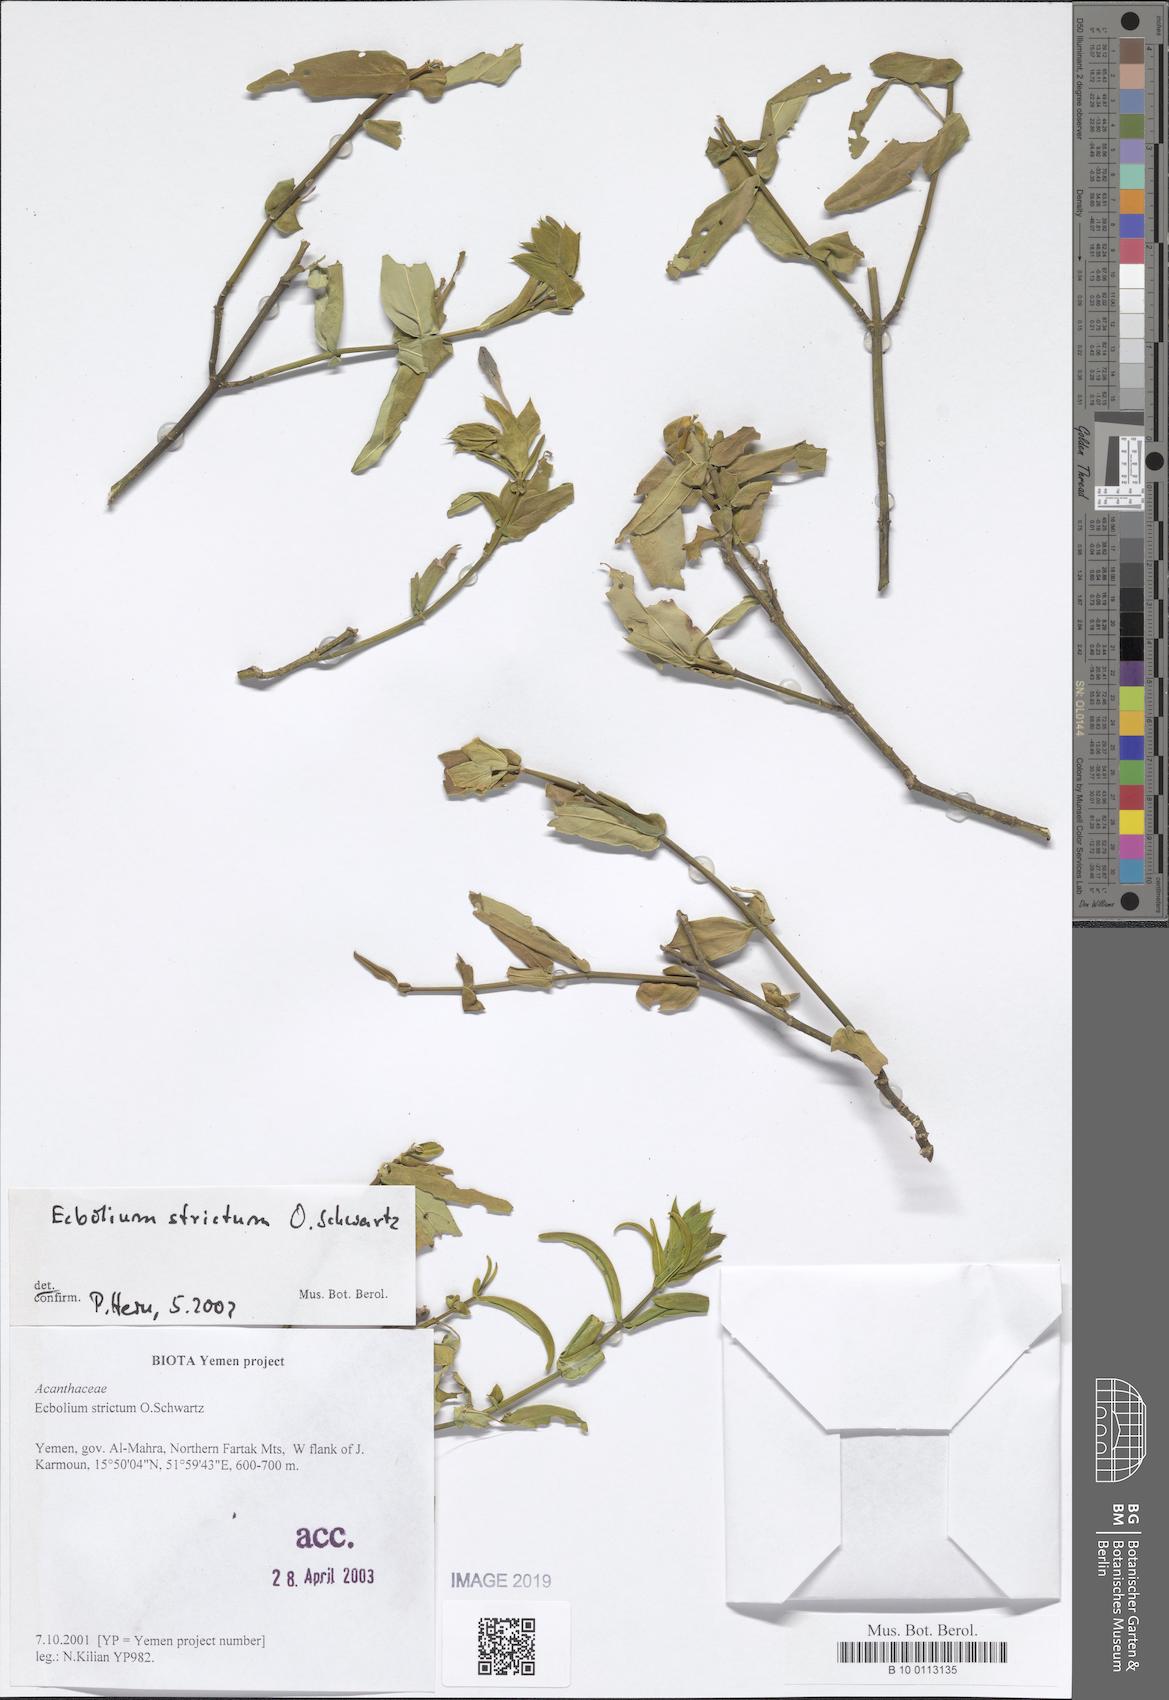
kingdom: Plantae
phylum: Tracheophyta
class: Magnoliopsida
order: Lamiales
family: Acanthaceae
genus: Ecbolium
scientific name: Ecbolium strictum
